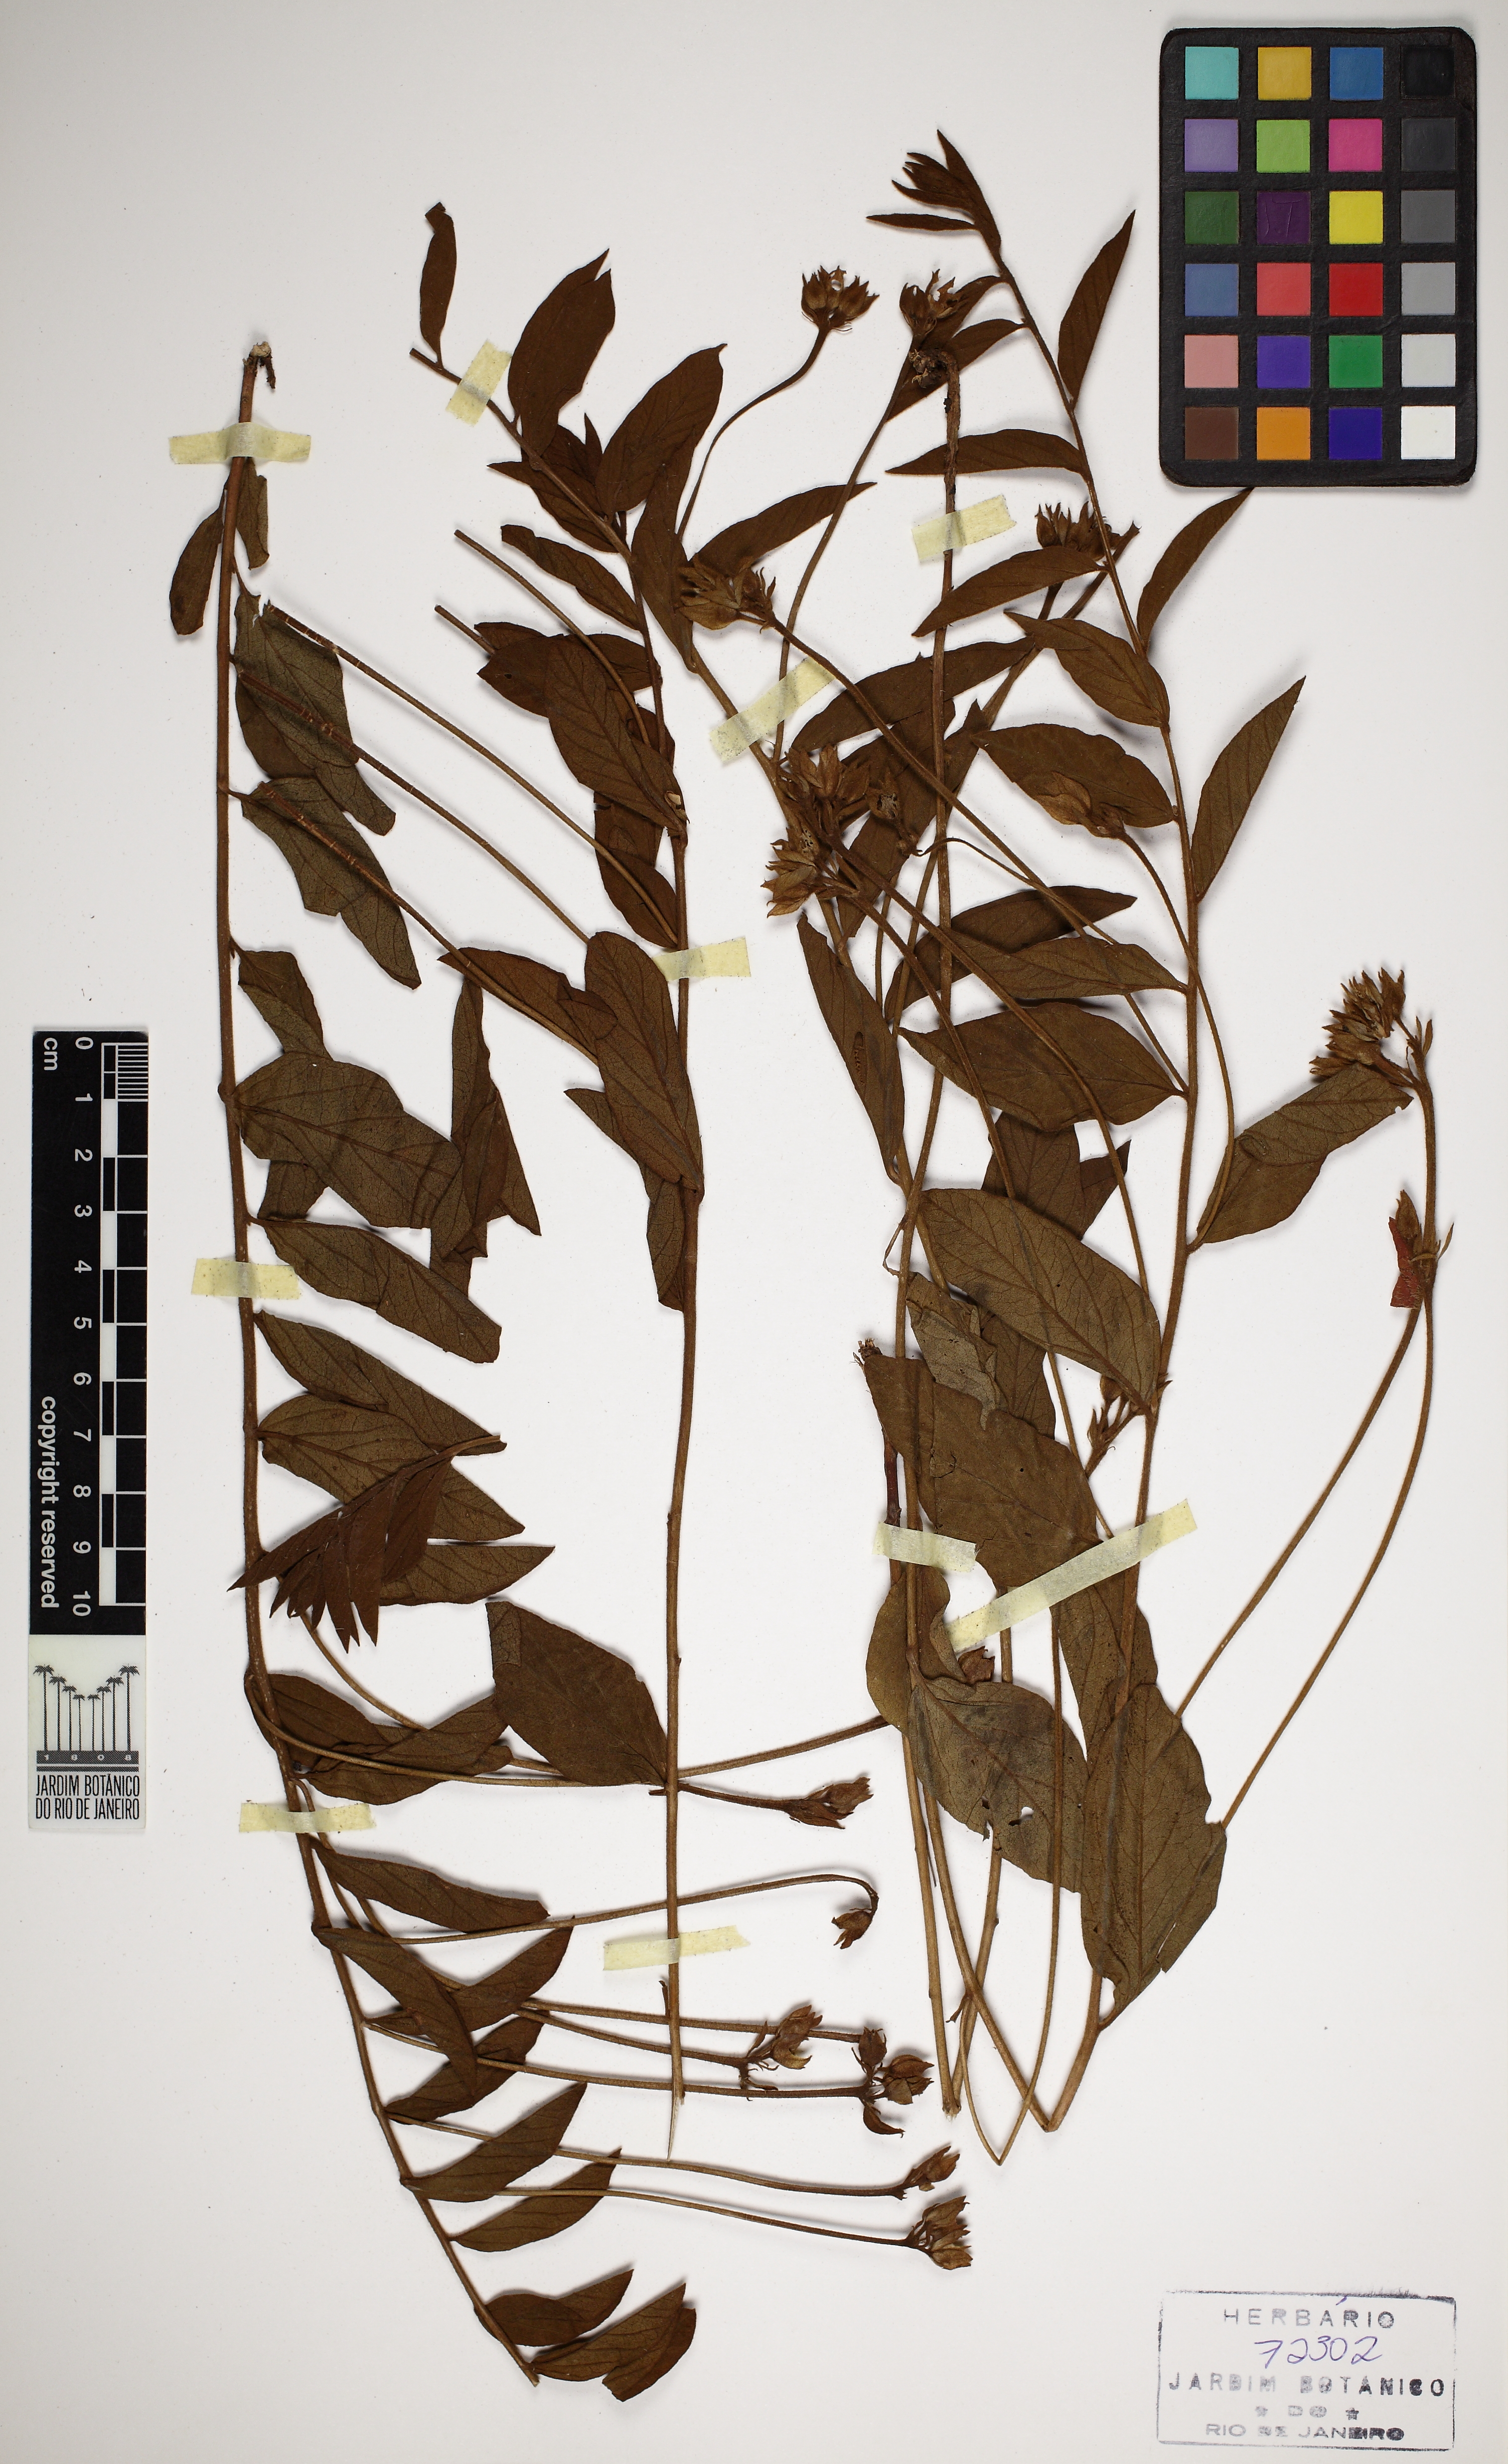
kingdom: Plantae
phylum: Tracheophyta
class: Magnoliopsida
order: Solanales
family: Convolvulaceae
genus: Jacquemontia
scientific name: Jacquemontia selloi
